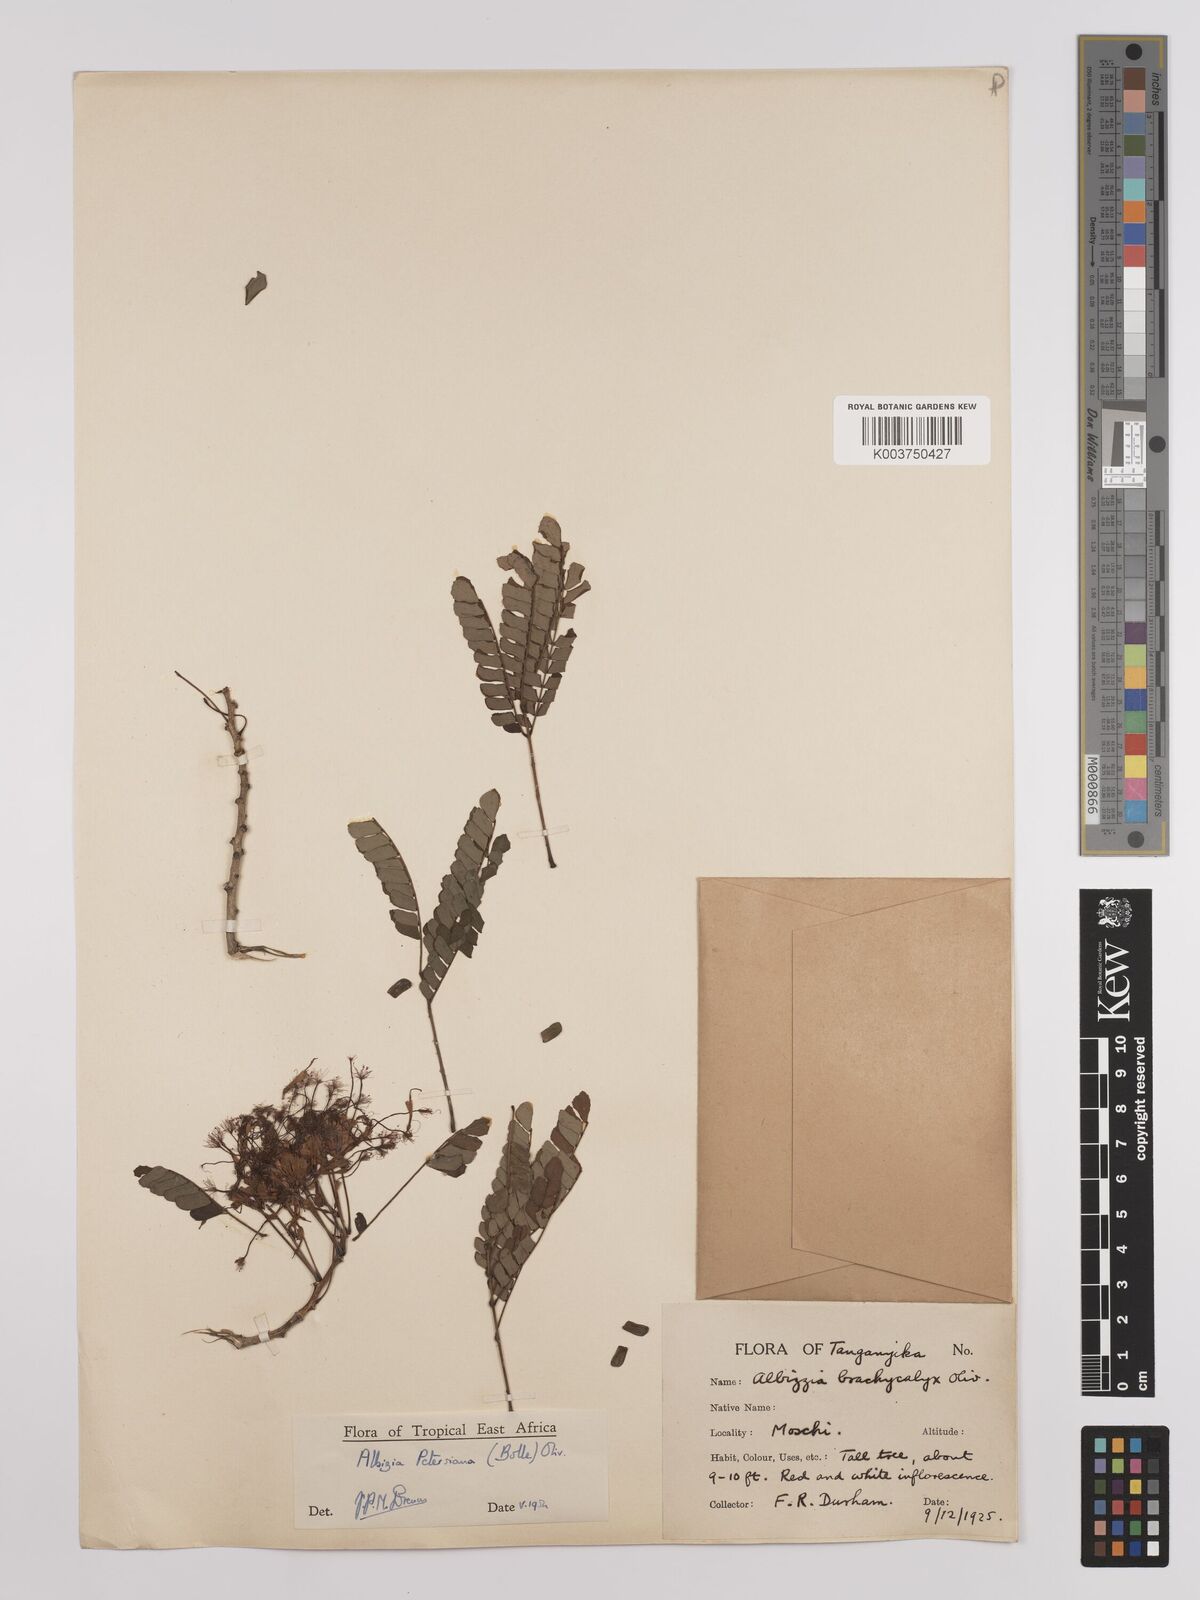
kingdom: Plantae
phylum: Tracheophyta
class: Magnoliopsida
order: Fabales
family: Fabaceae
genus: Albizia
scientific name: Albizia petersiana
